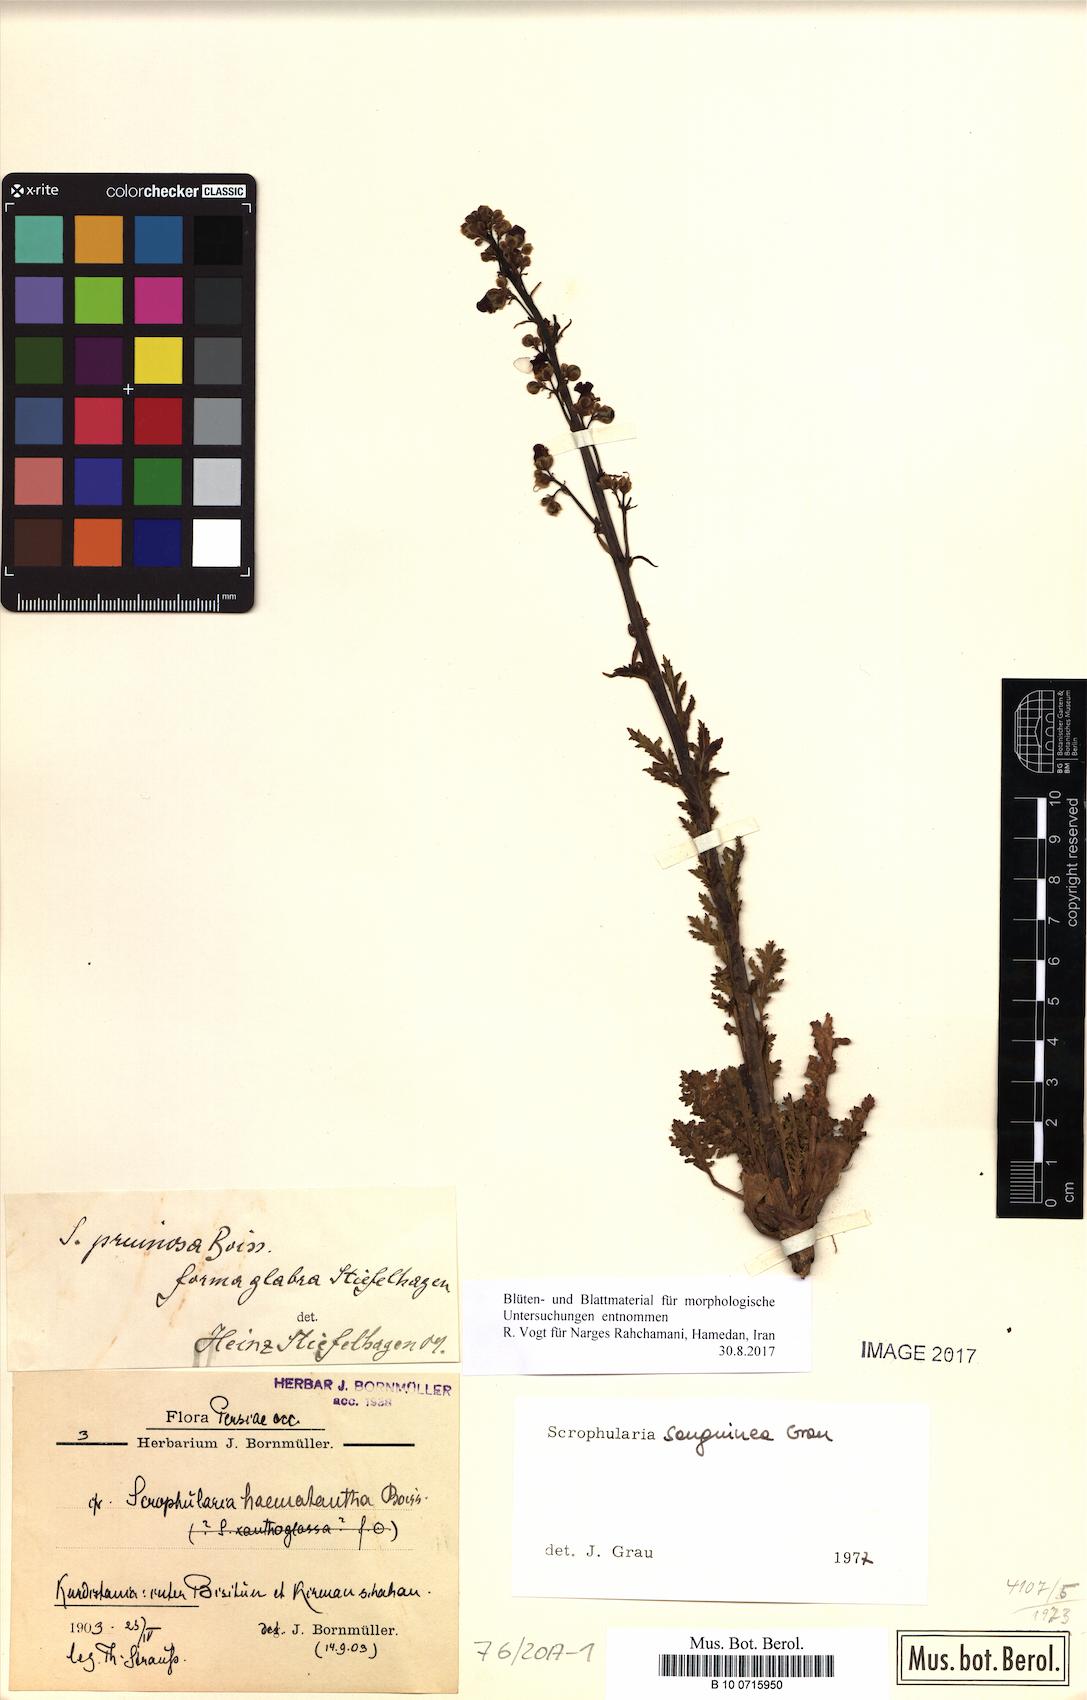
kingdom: Plantae
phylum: Tracheophyta
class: Magnoliopsida
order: Lamiales
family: Scrophulariaceae
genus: Scrophularia
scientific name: Scrophularia sanguinea
